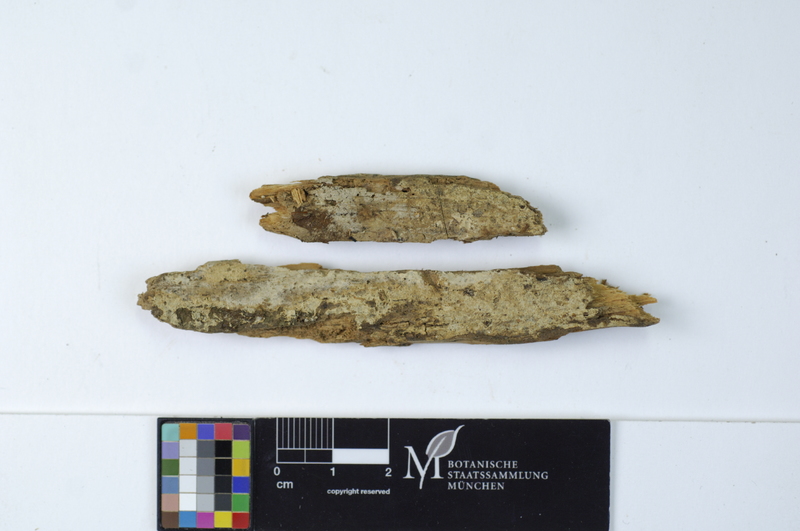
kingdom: Plantae
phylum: Tracheophyta
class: Pinopsida
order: Pinales
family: Pinaceae
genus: Pinus
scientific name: Pinus
